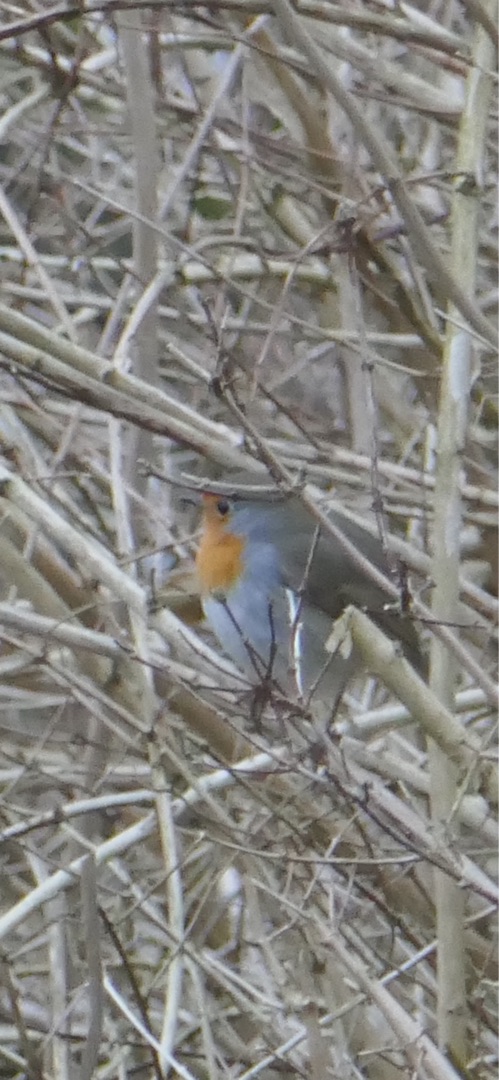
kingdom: Animalia
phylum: Chordata
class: Aves
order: Passeriformes
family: Muscicapidae
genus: Erithacus
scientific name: Erithacus rubecula
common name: Rødhals/rødkælk
